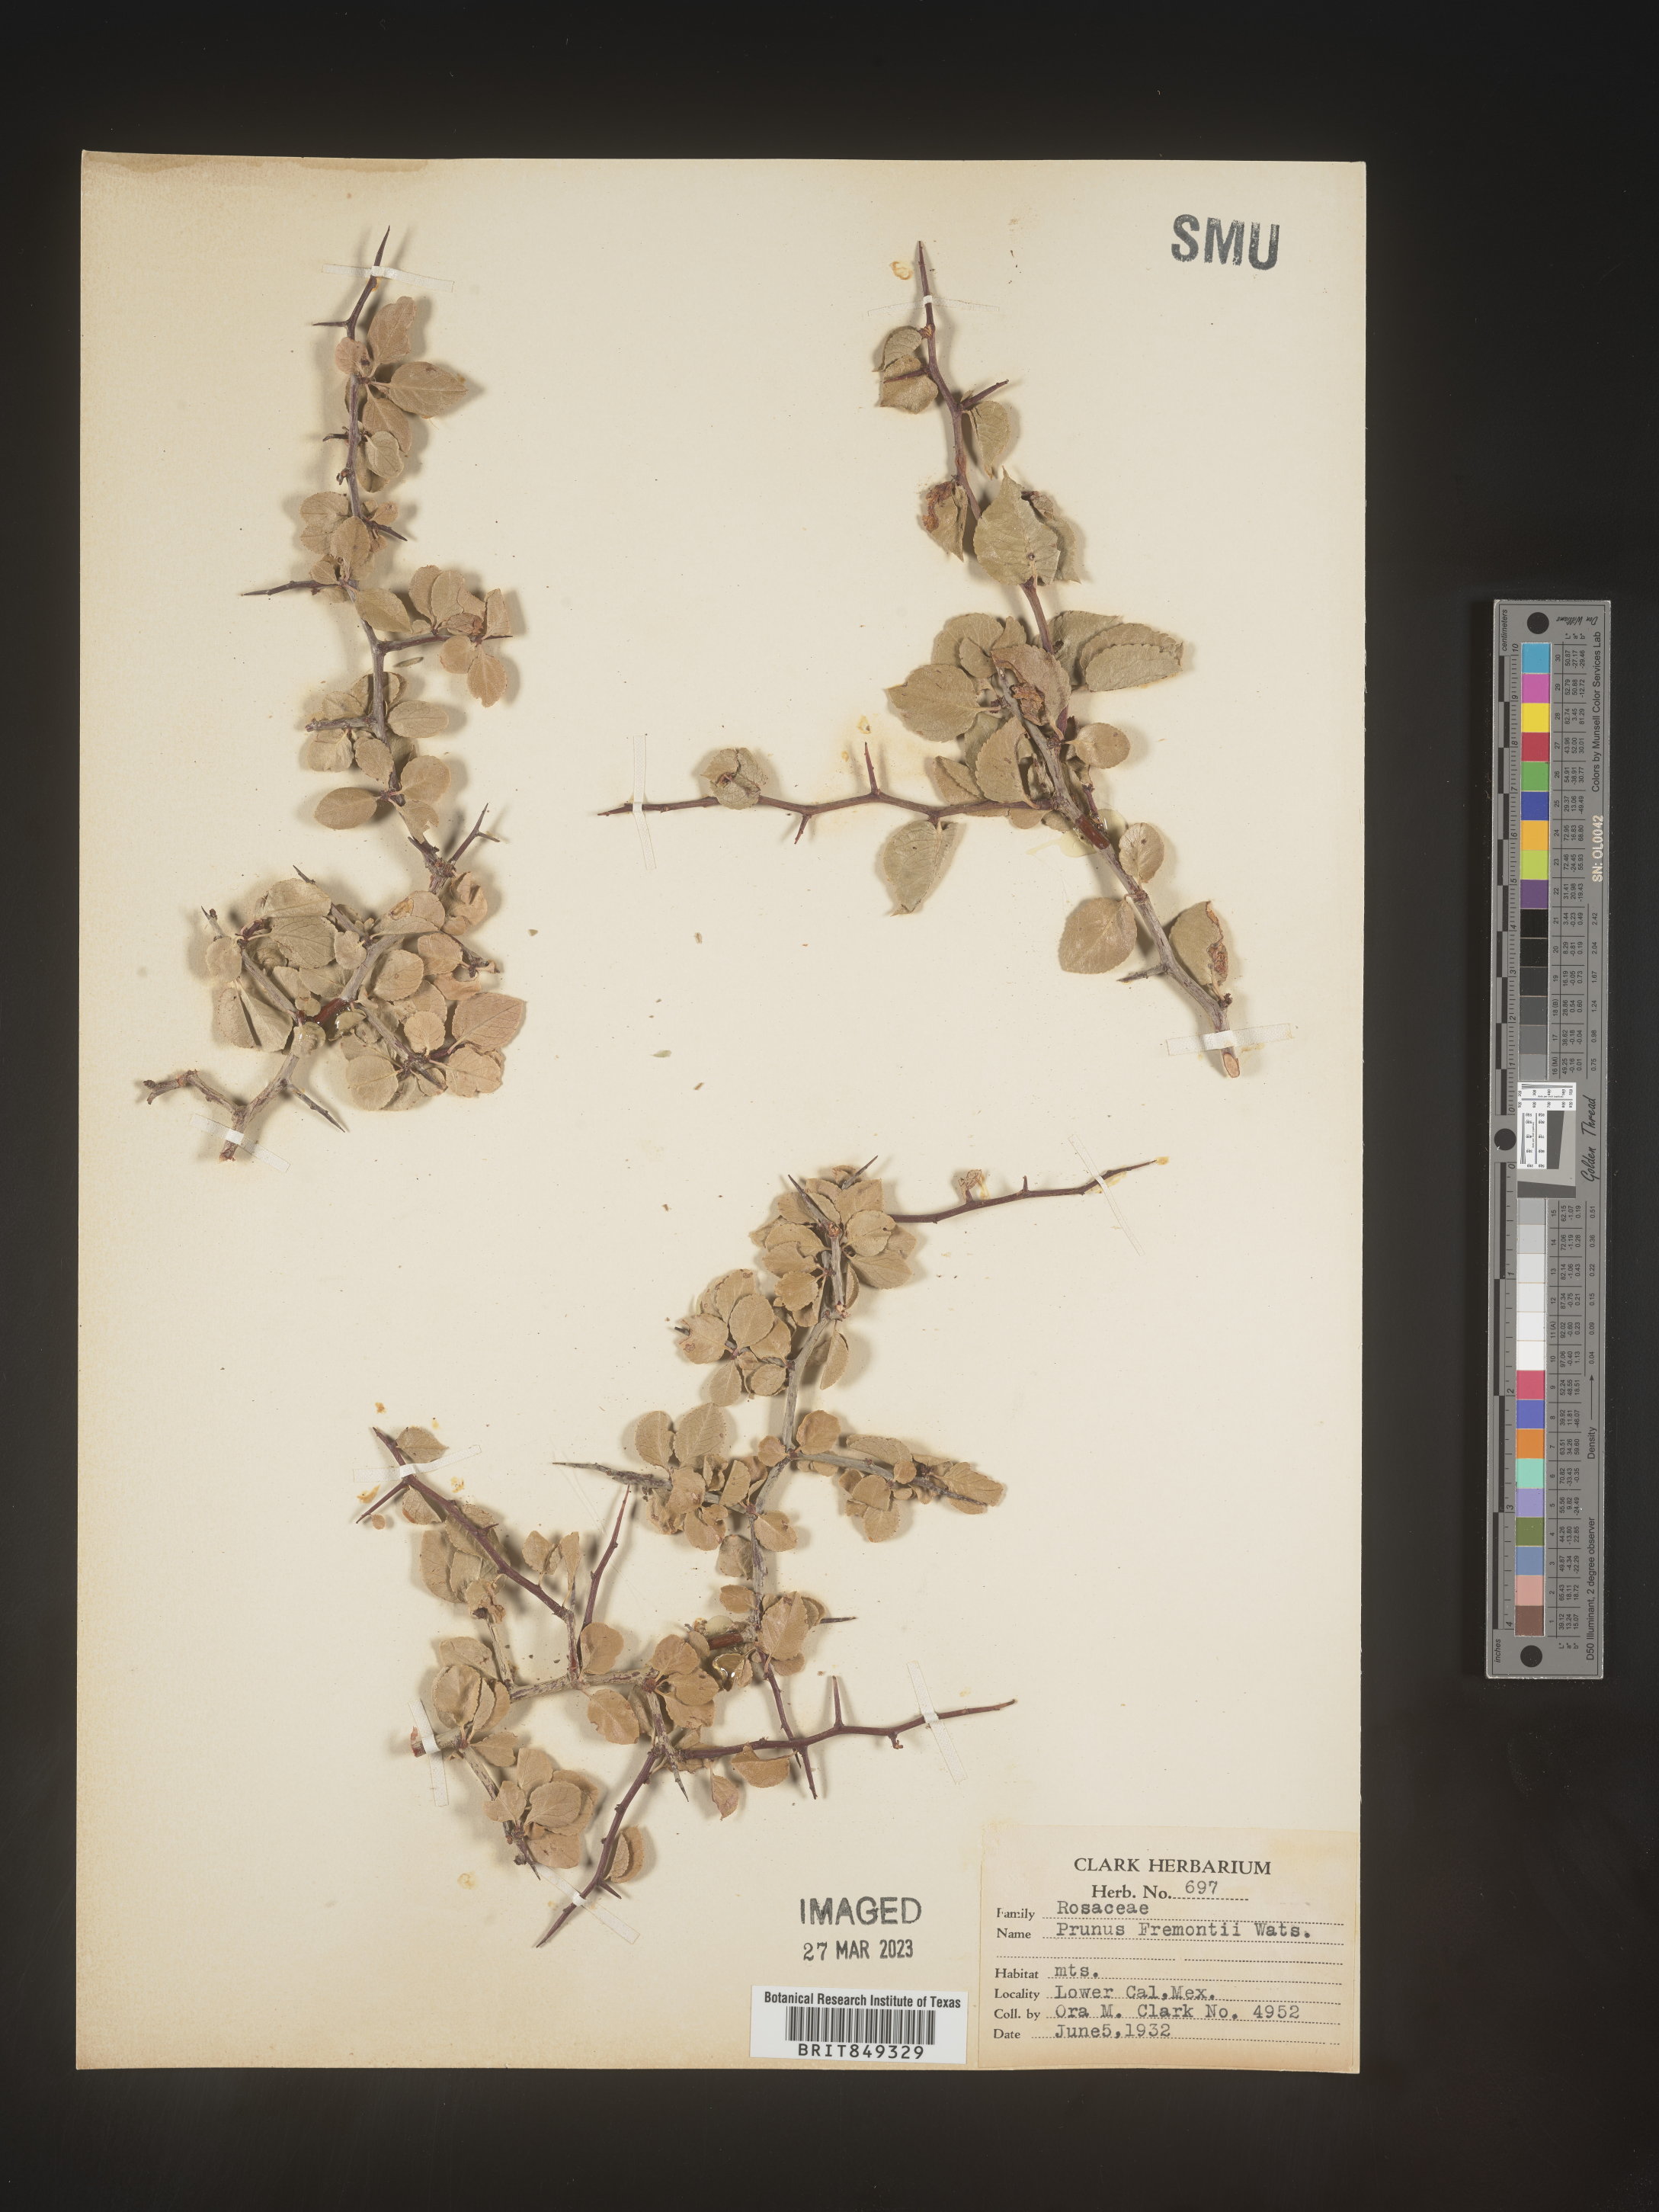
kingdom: Plantae
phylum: Tracheophyta
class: Magnoliopsida
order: Rosales
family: Rosaceae
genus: Prunus
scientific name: Prunus
